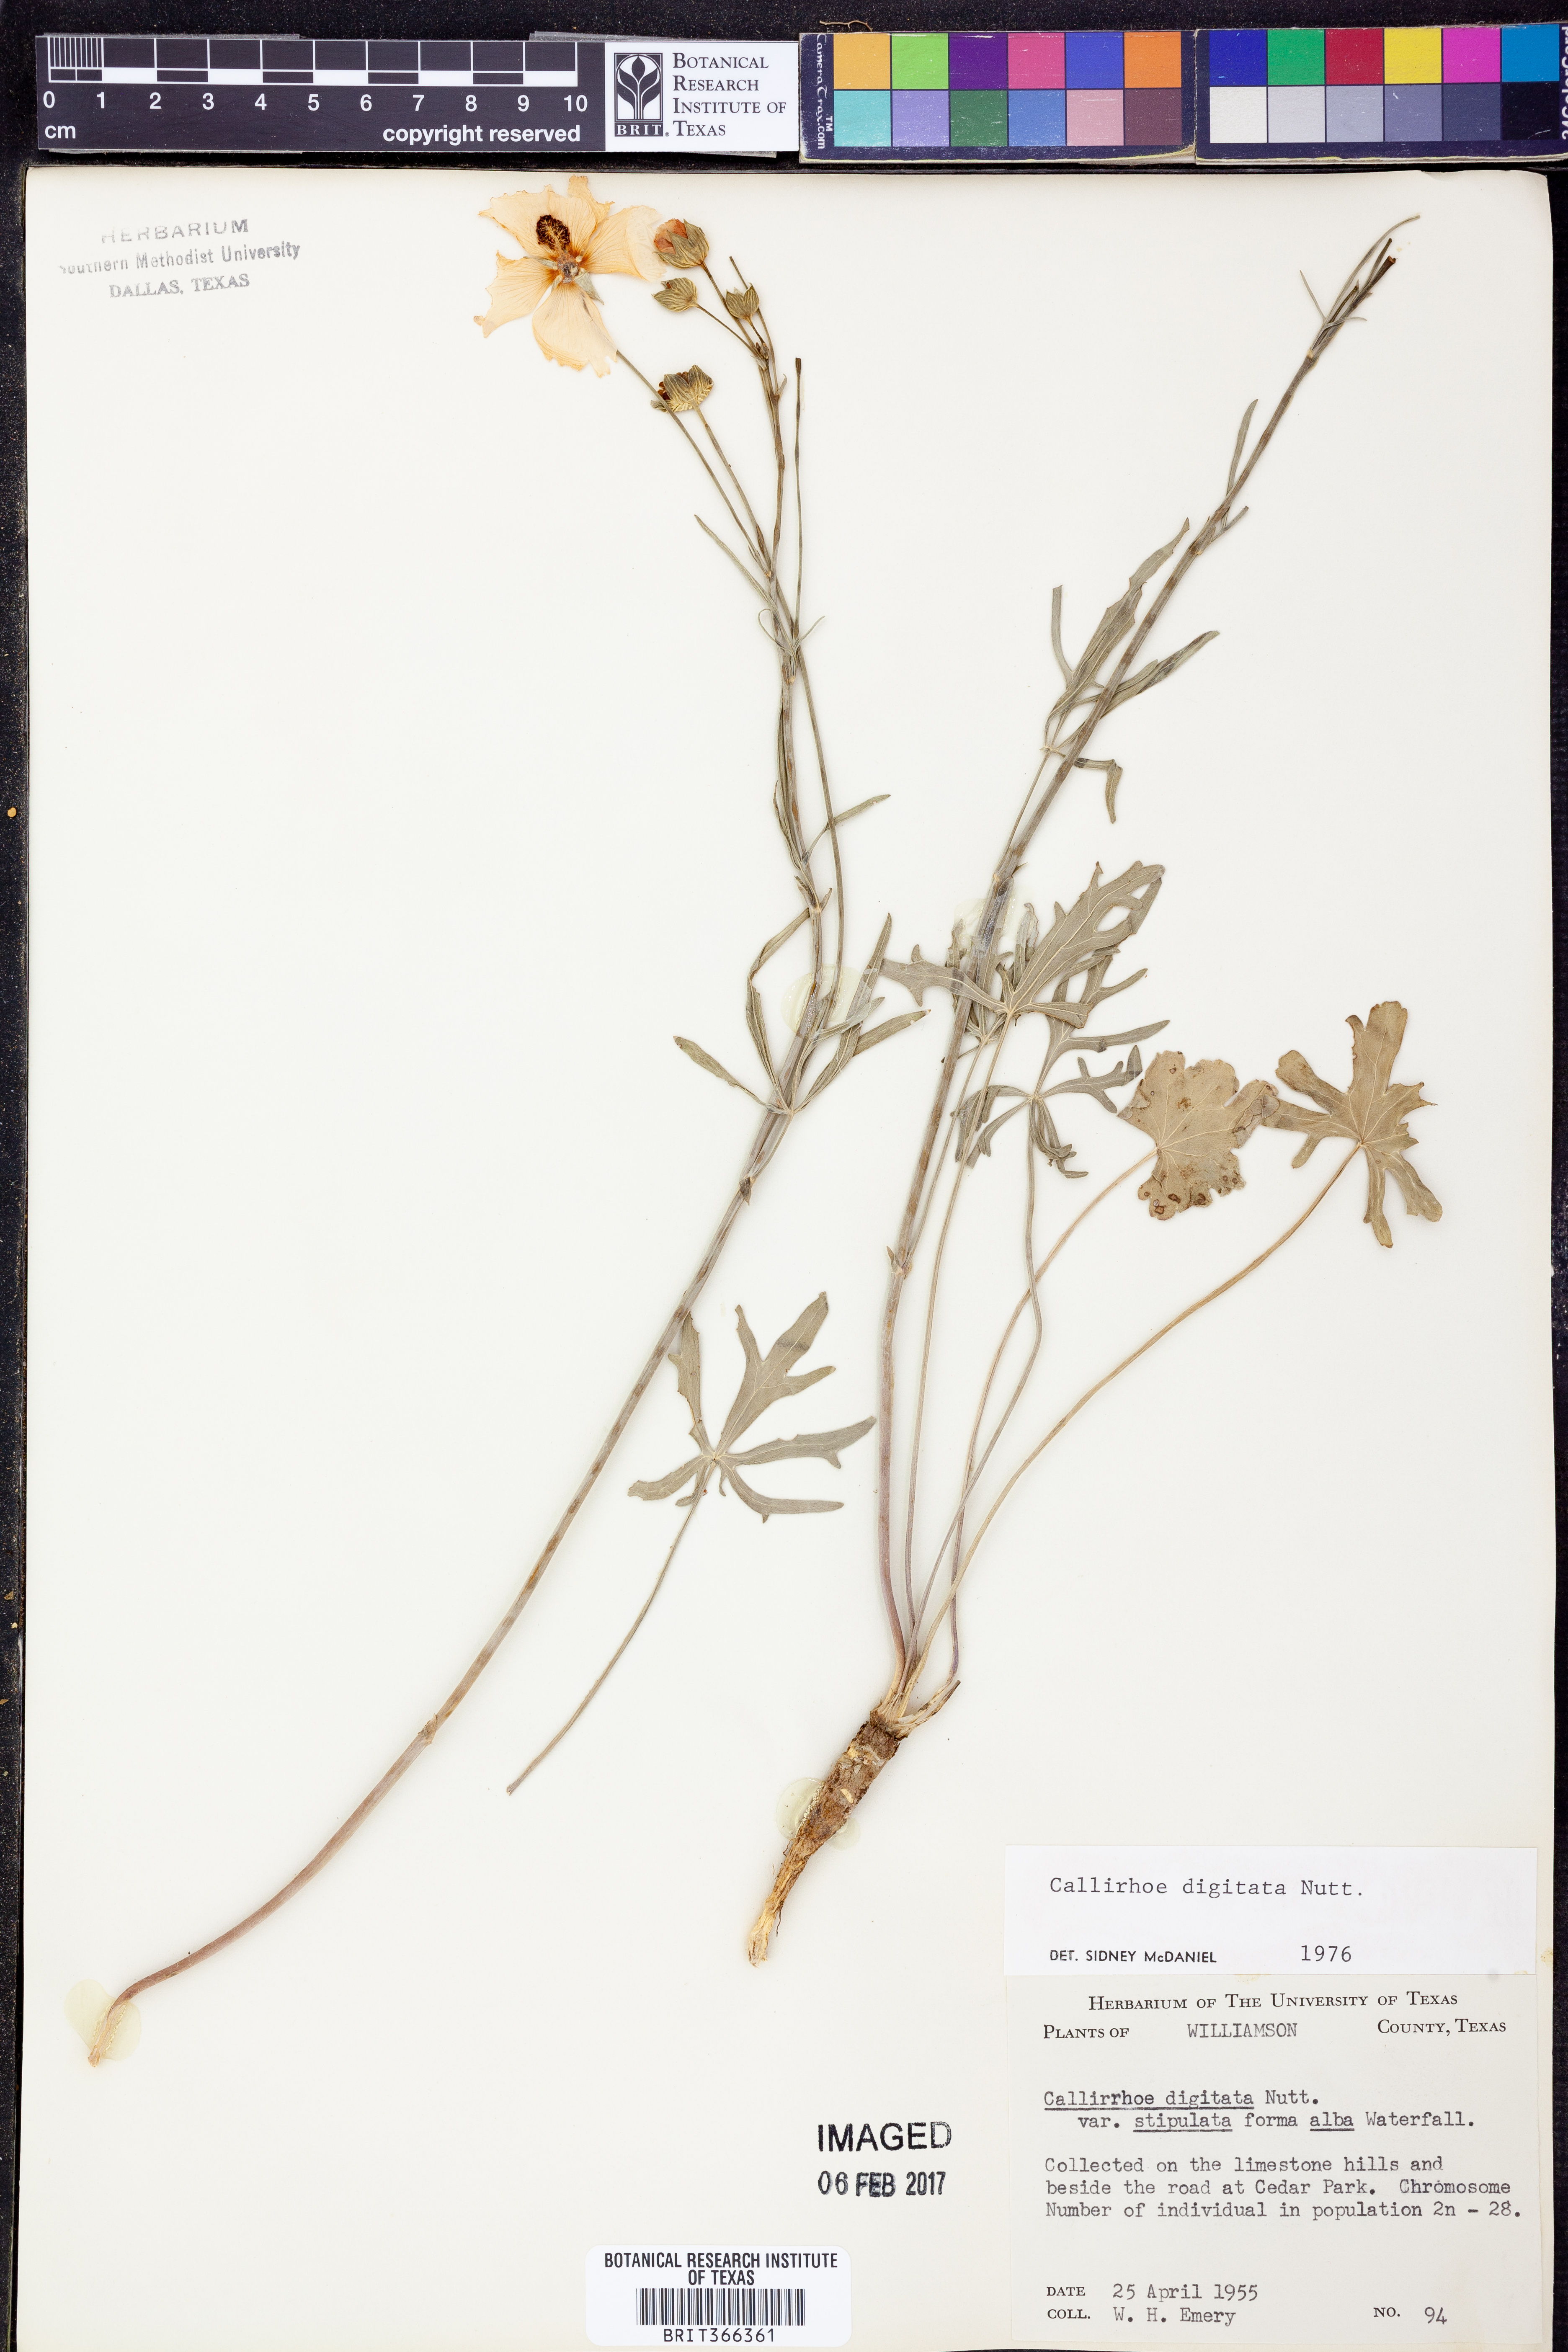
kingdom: Plantae
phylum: Tracheophyta
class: Magnoliopsida
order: Malvales
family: Malvaceae
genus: Callirhoe
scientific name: Callirhoe digitata
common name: Finger poppy-mallow
